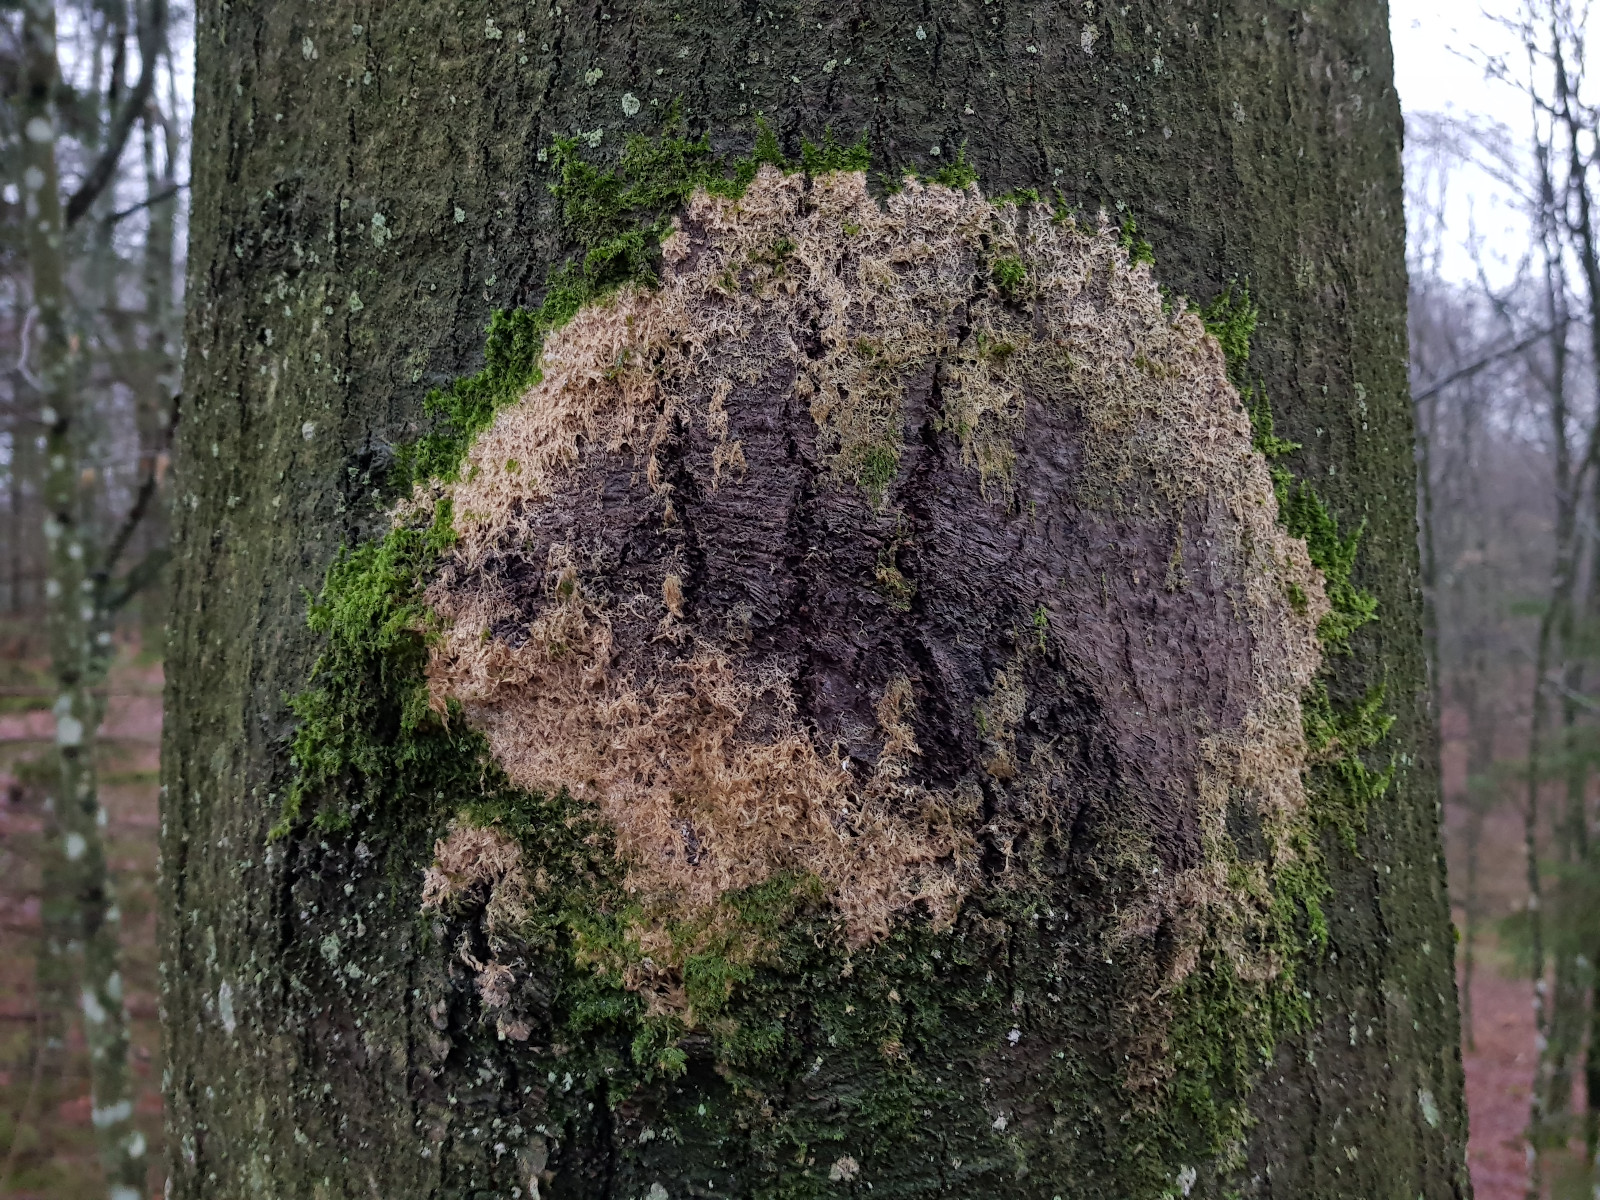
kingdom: Fungi
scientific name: Fungi
